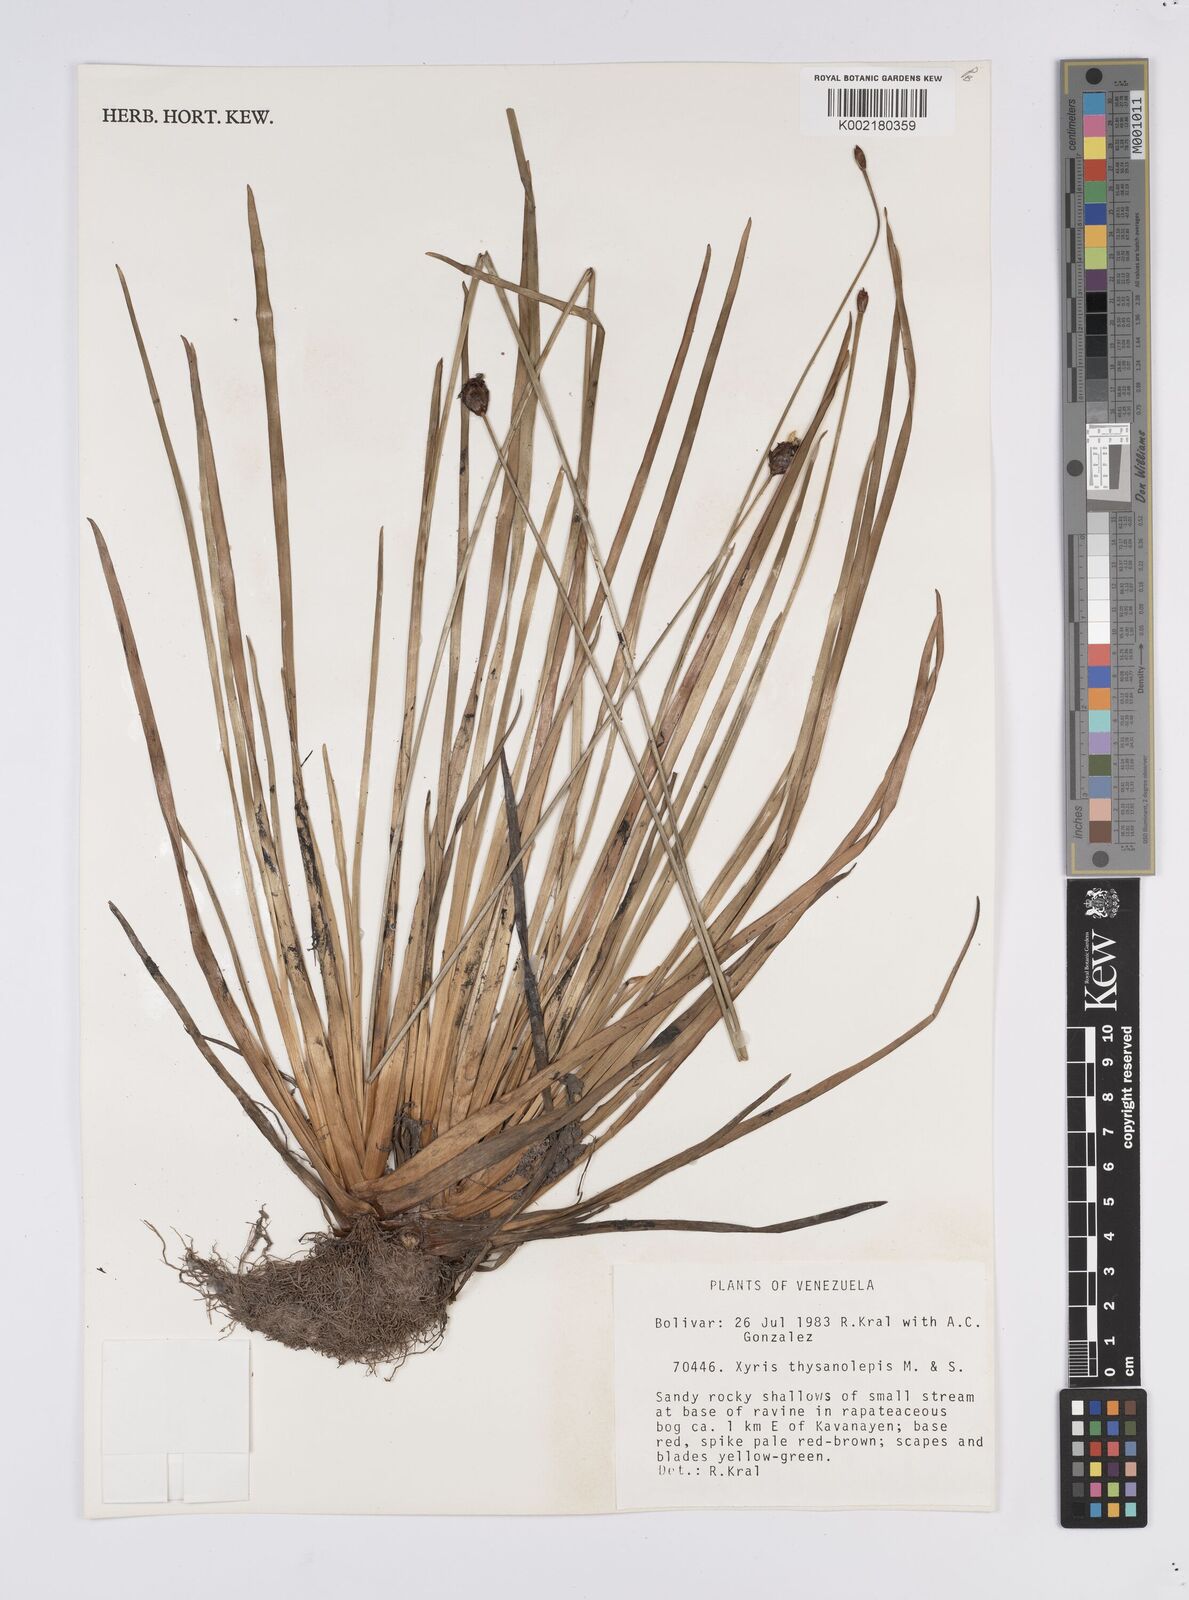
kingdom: Plantae
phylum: Tracheophyta
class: Liliopsida
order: Poales
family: Xyridaceae
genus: Xyris
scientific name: Xyris thysanolepis
